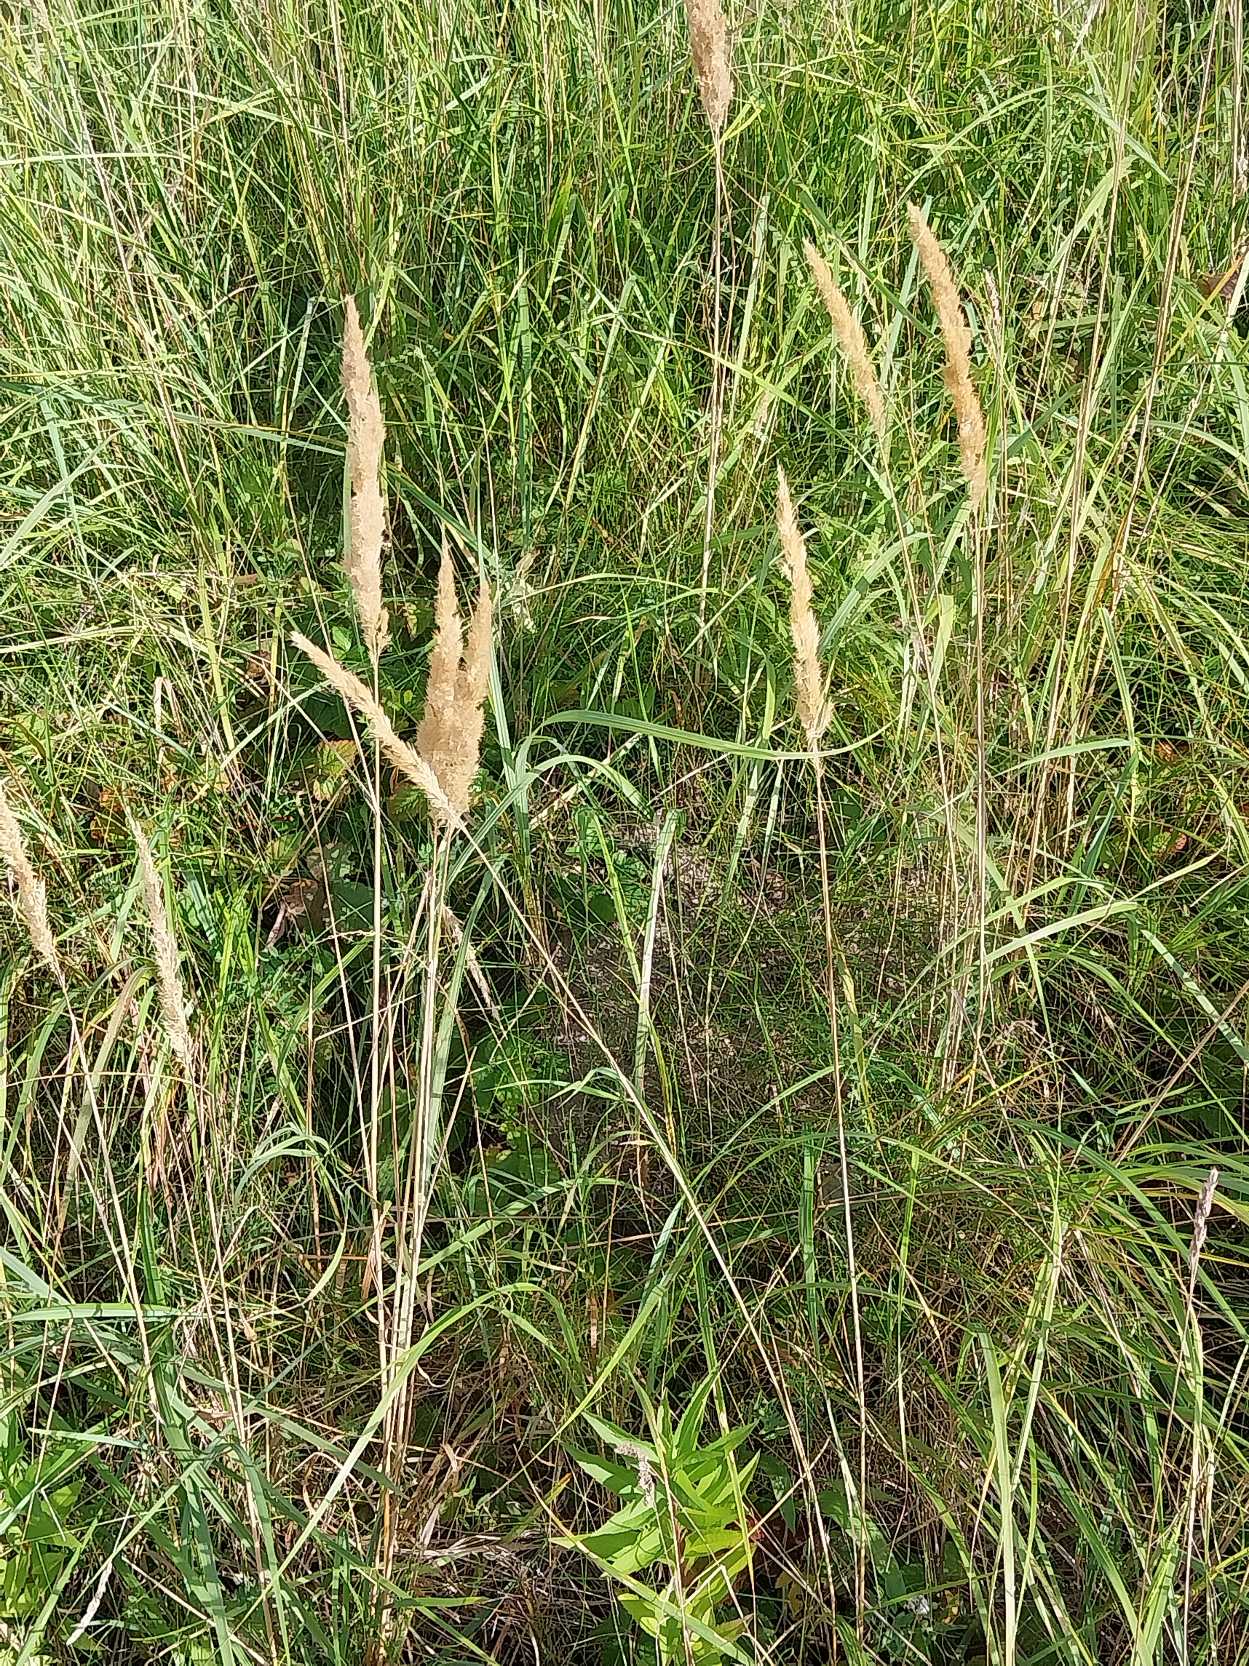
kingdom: Plantae
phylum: Tracheophyta
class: Liliopsida
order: Poales
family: Poaceae
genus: Calamagrostis
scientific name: Calamagrostis epigejos
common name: Bjerg-rørhvene
